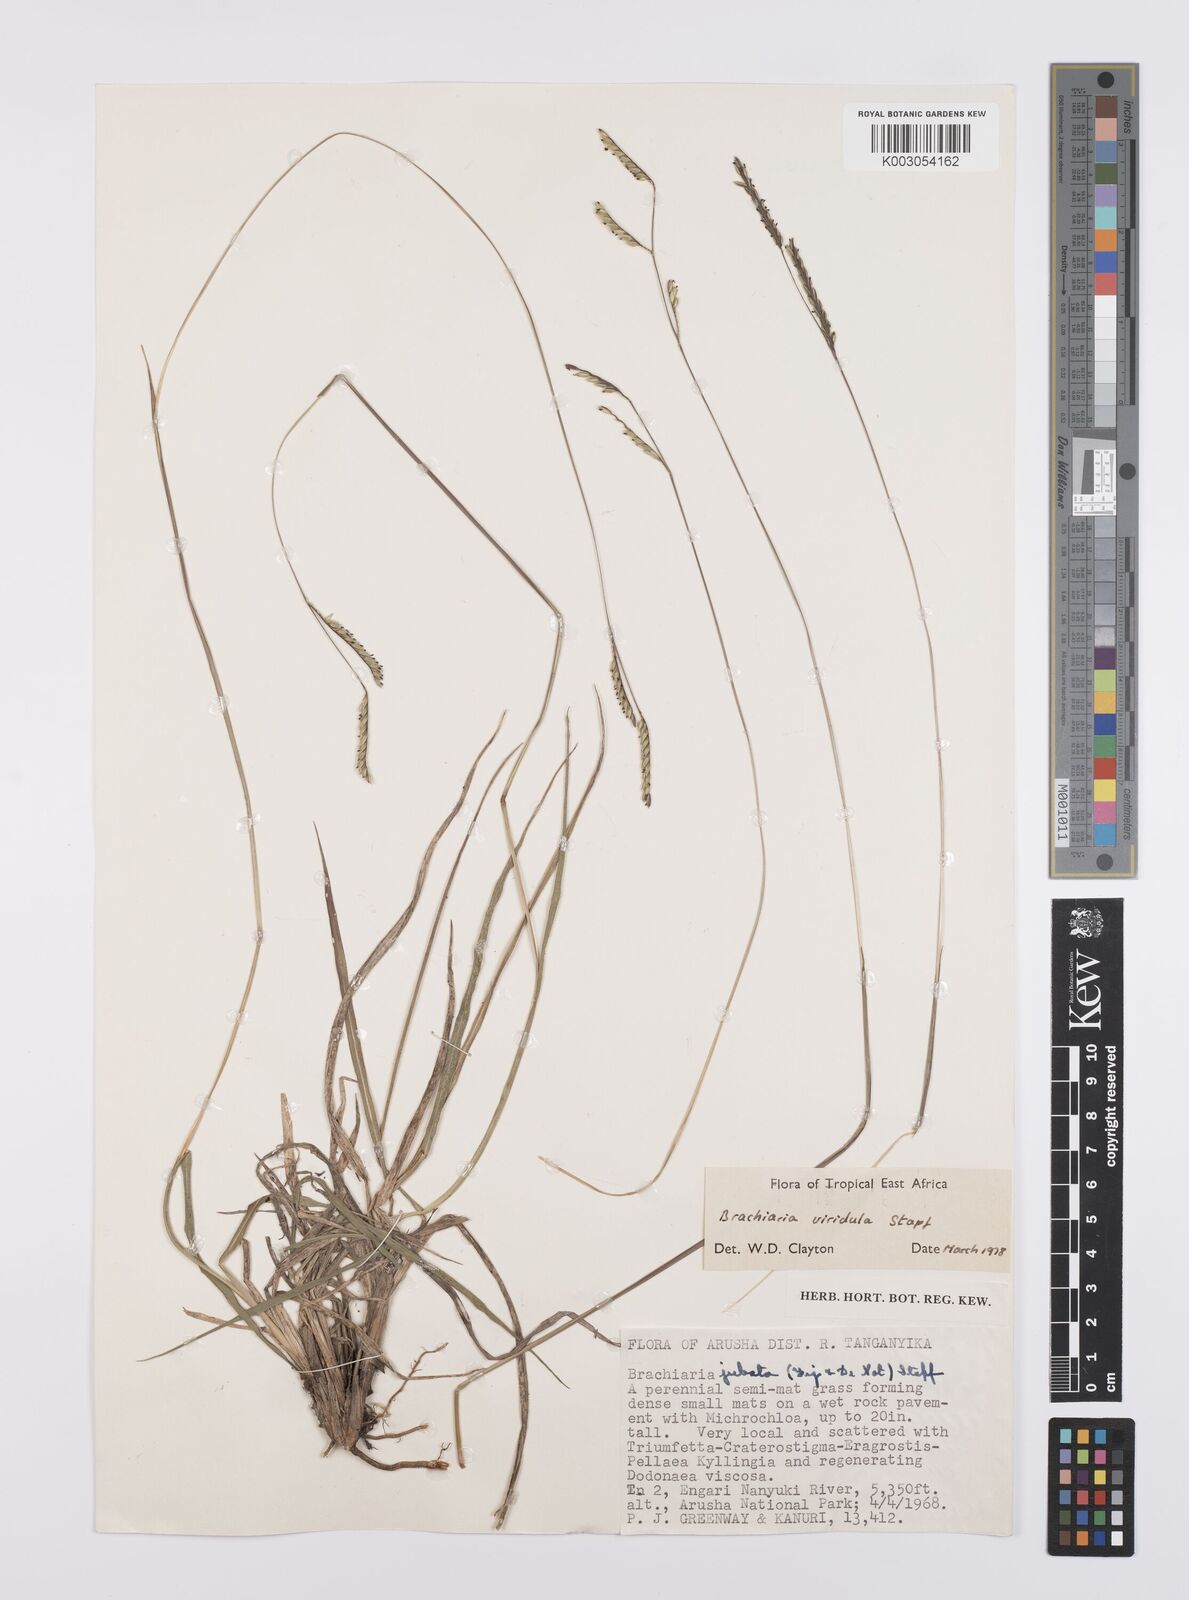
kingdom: Plantae
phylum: Tracheophyta
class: Liliopsida
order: Poales
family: Poaceae
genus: Urochloa
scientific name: Urochloa bovonei
